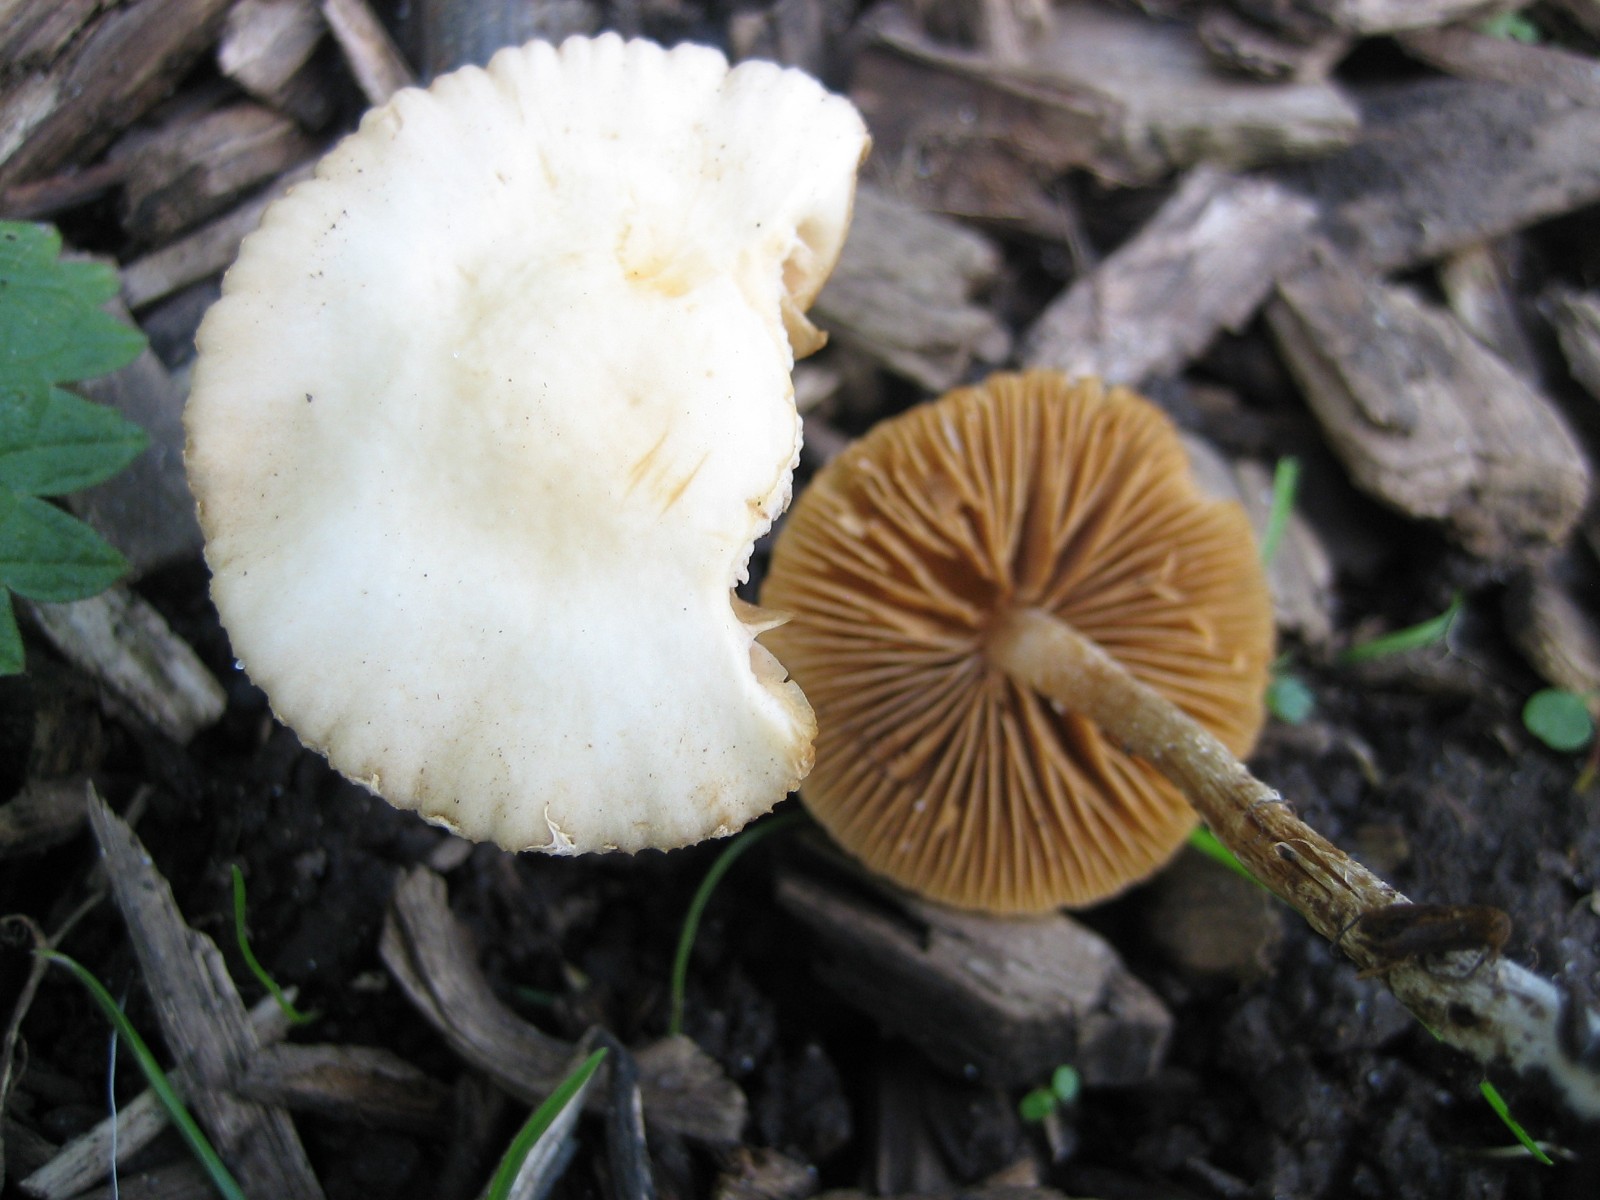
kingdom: Fungi
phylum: Basidiomycota
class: Agaricomycetes
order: Agaricales
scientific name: Agaricales
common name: champignonordenen
